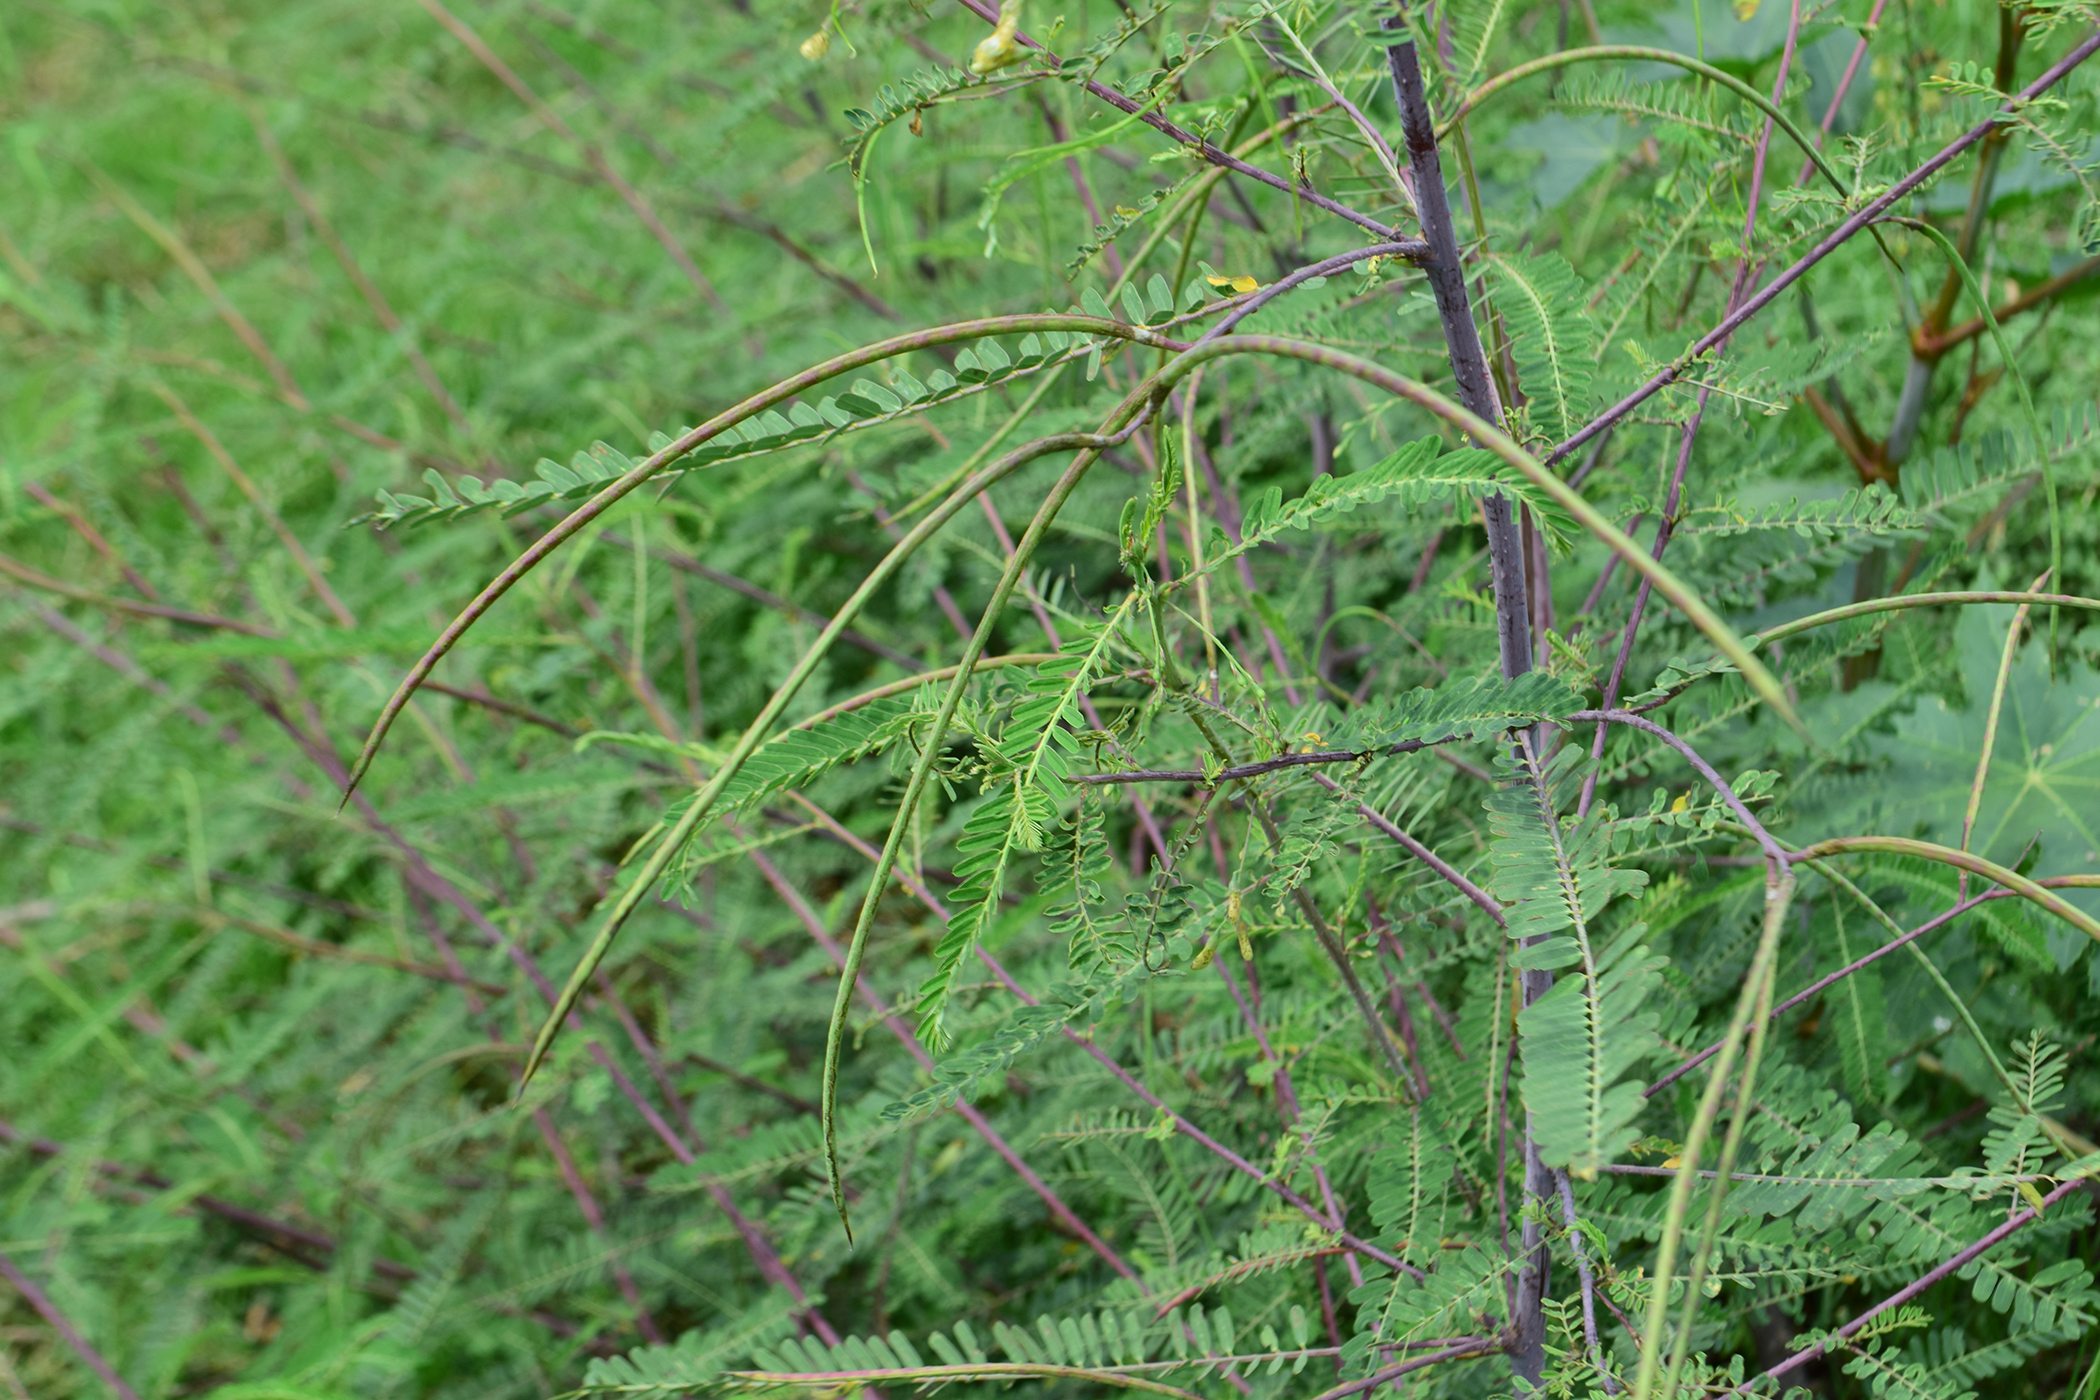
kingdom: Plantae
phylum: Tracheophyta
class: Magnoliopsida
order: Fabales
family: Fabaceae
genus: Sesbania
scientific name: Sesbania bispinosa
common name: Sesbania pea
